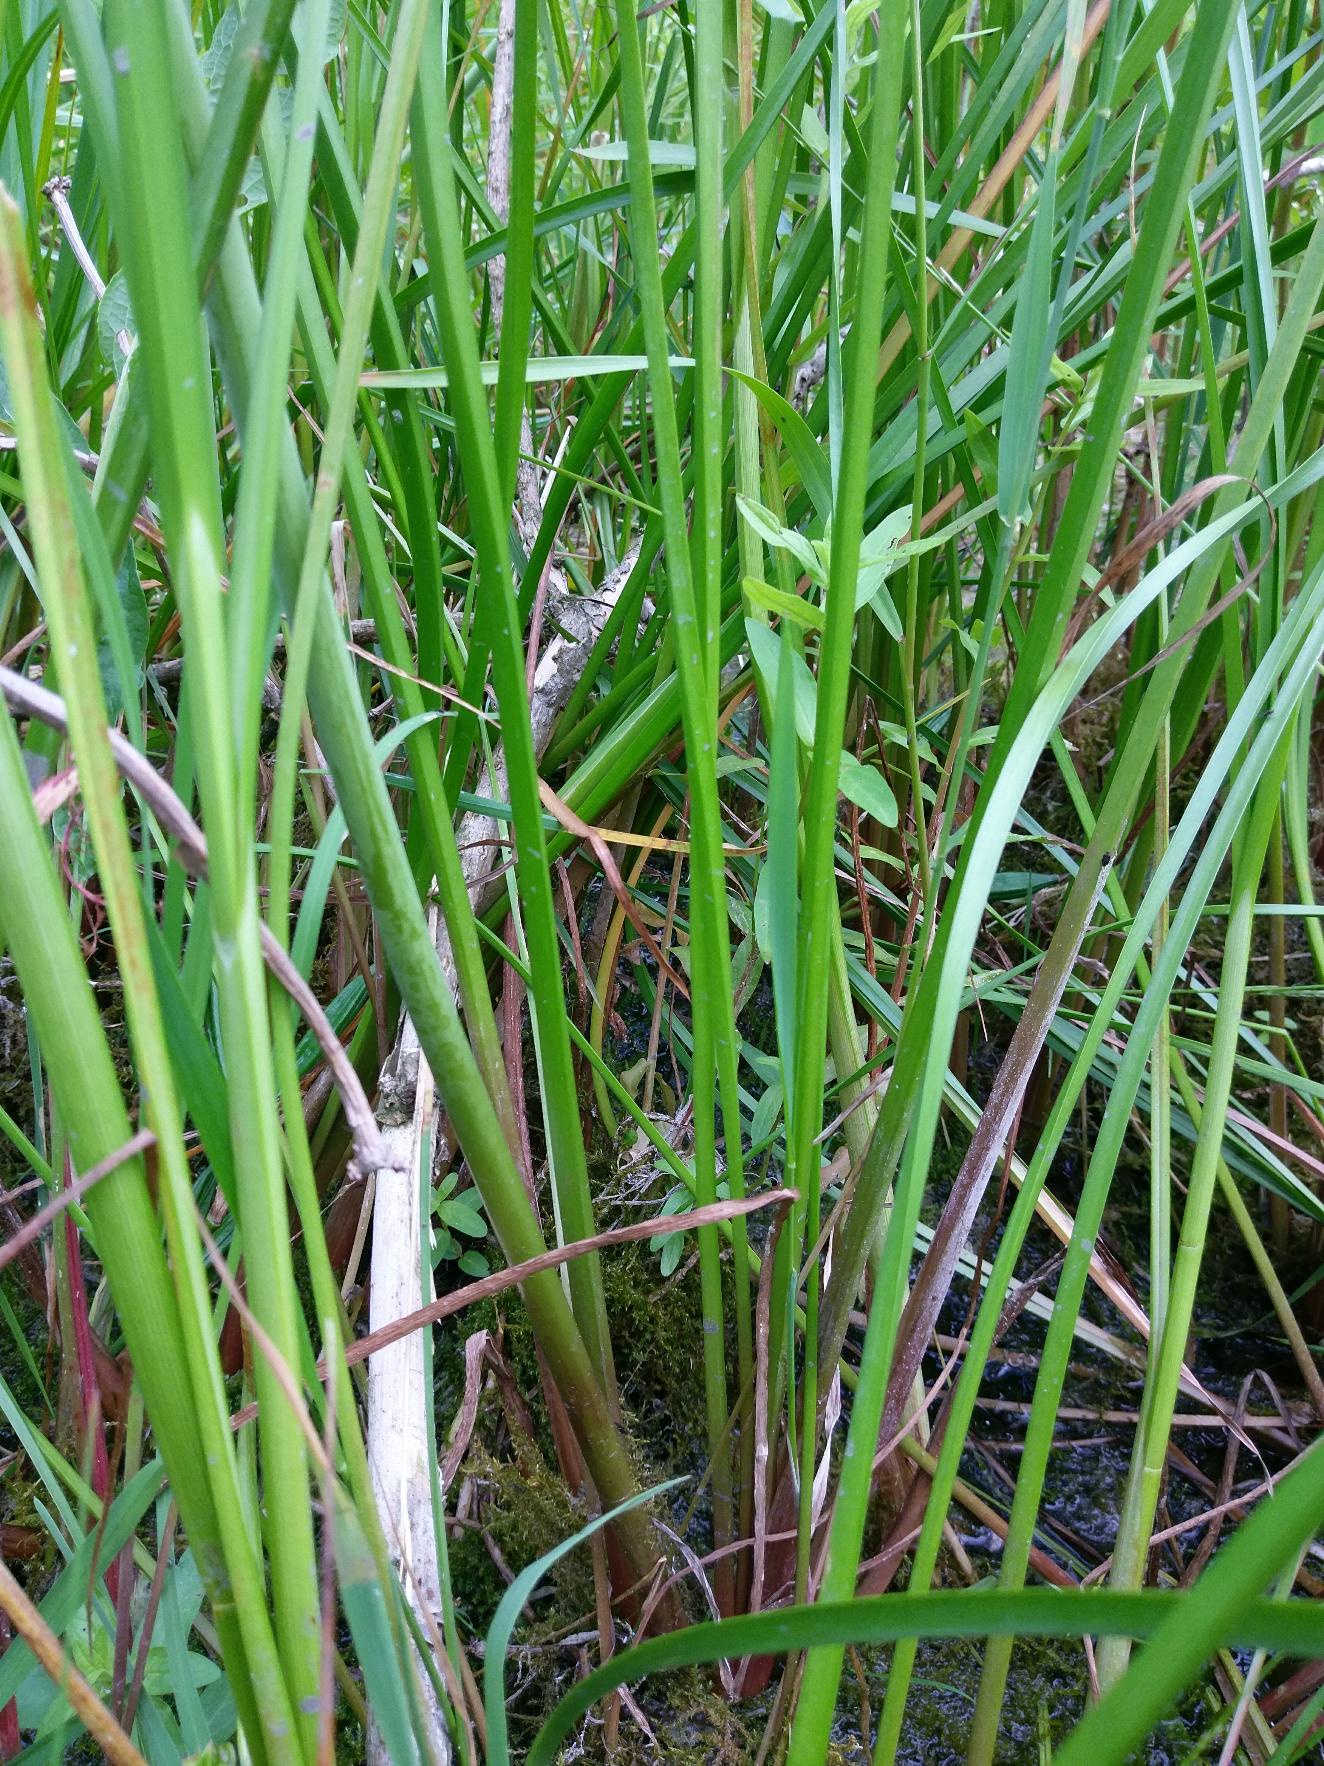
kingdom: Plantae
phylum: Tracheophyta
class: Liliopsida
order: Alismatales
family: Butomaceae
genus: Butomus
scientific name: Butomus umbellatus
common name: Brudelys
